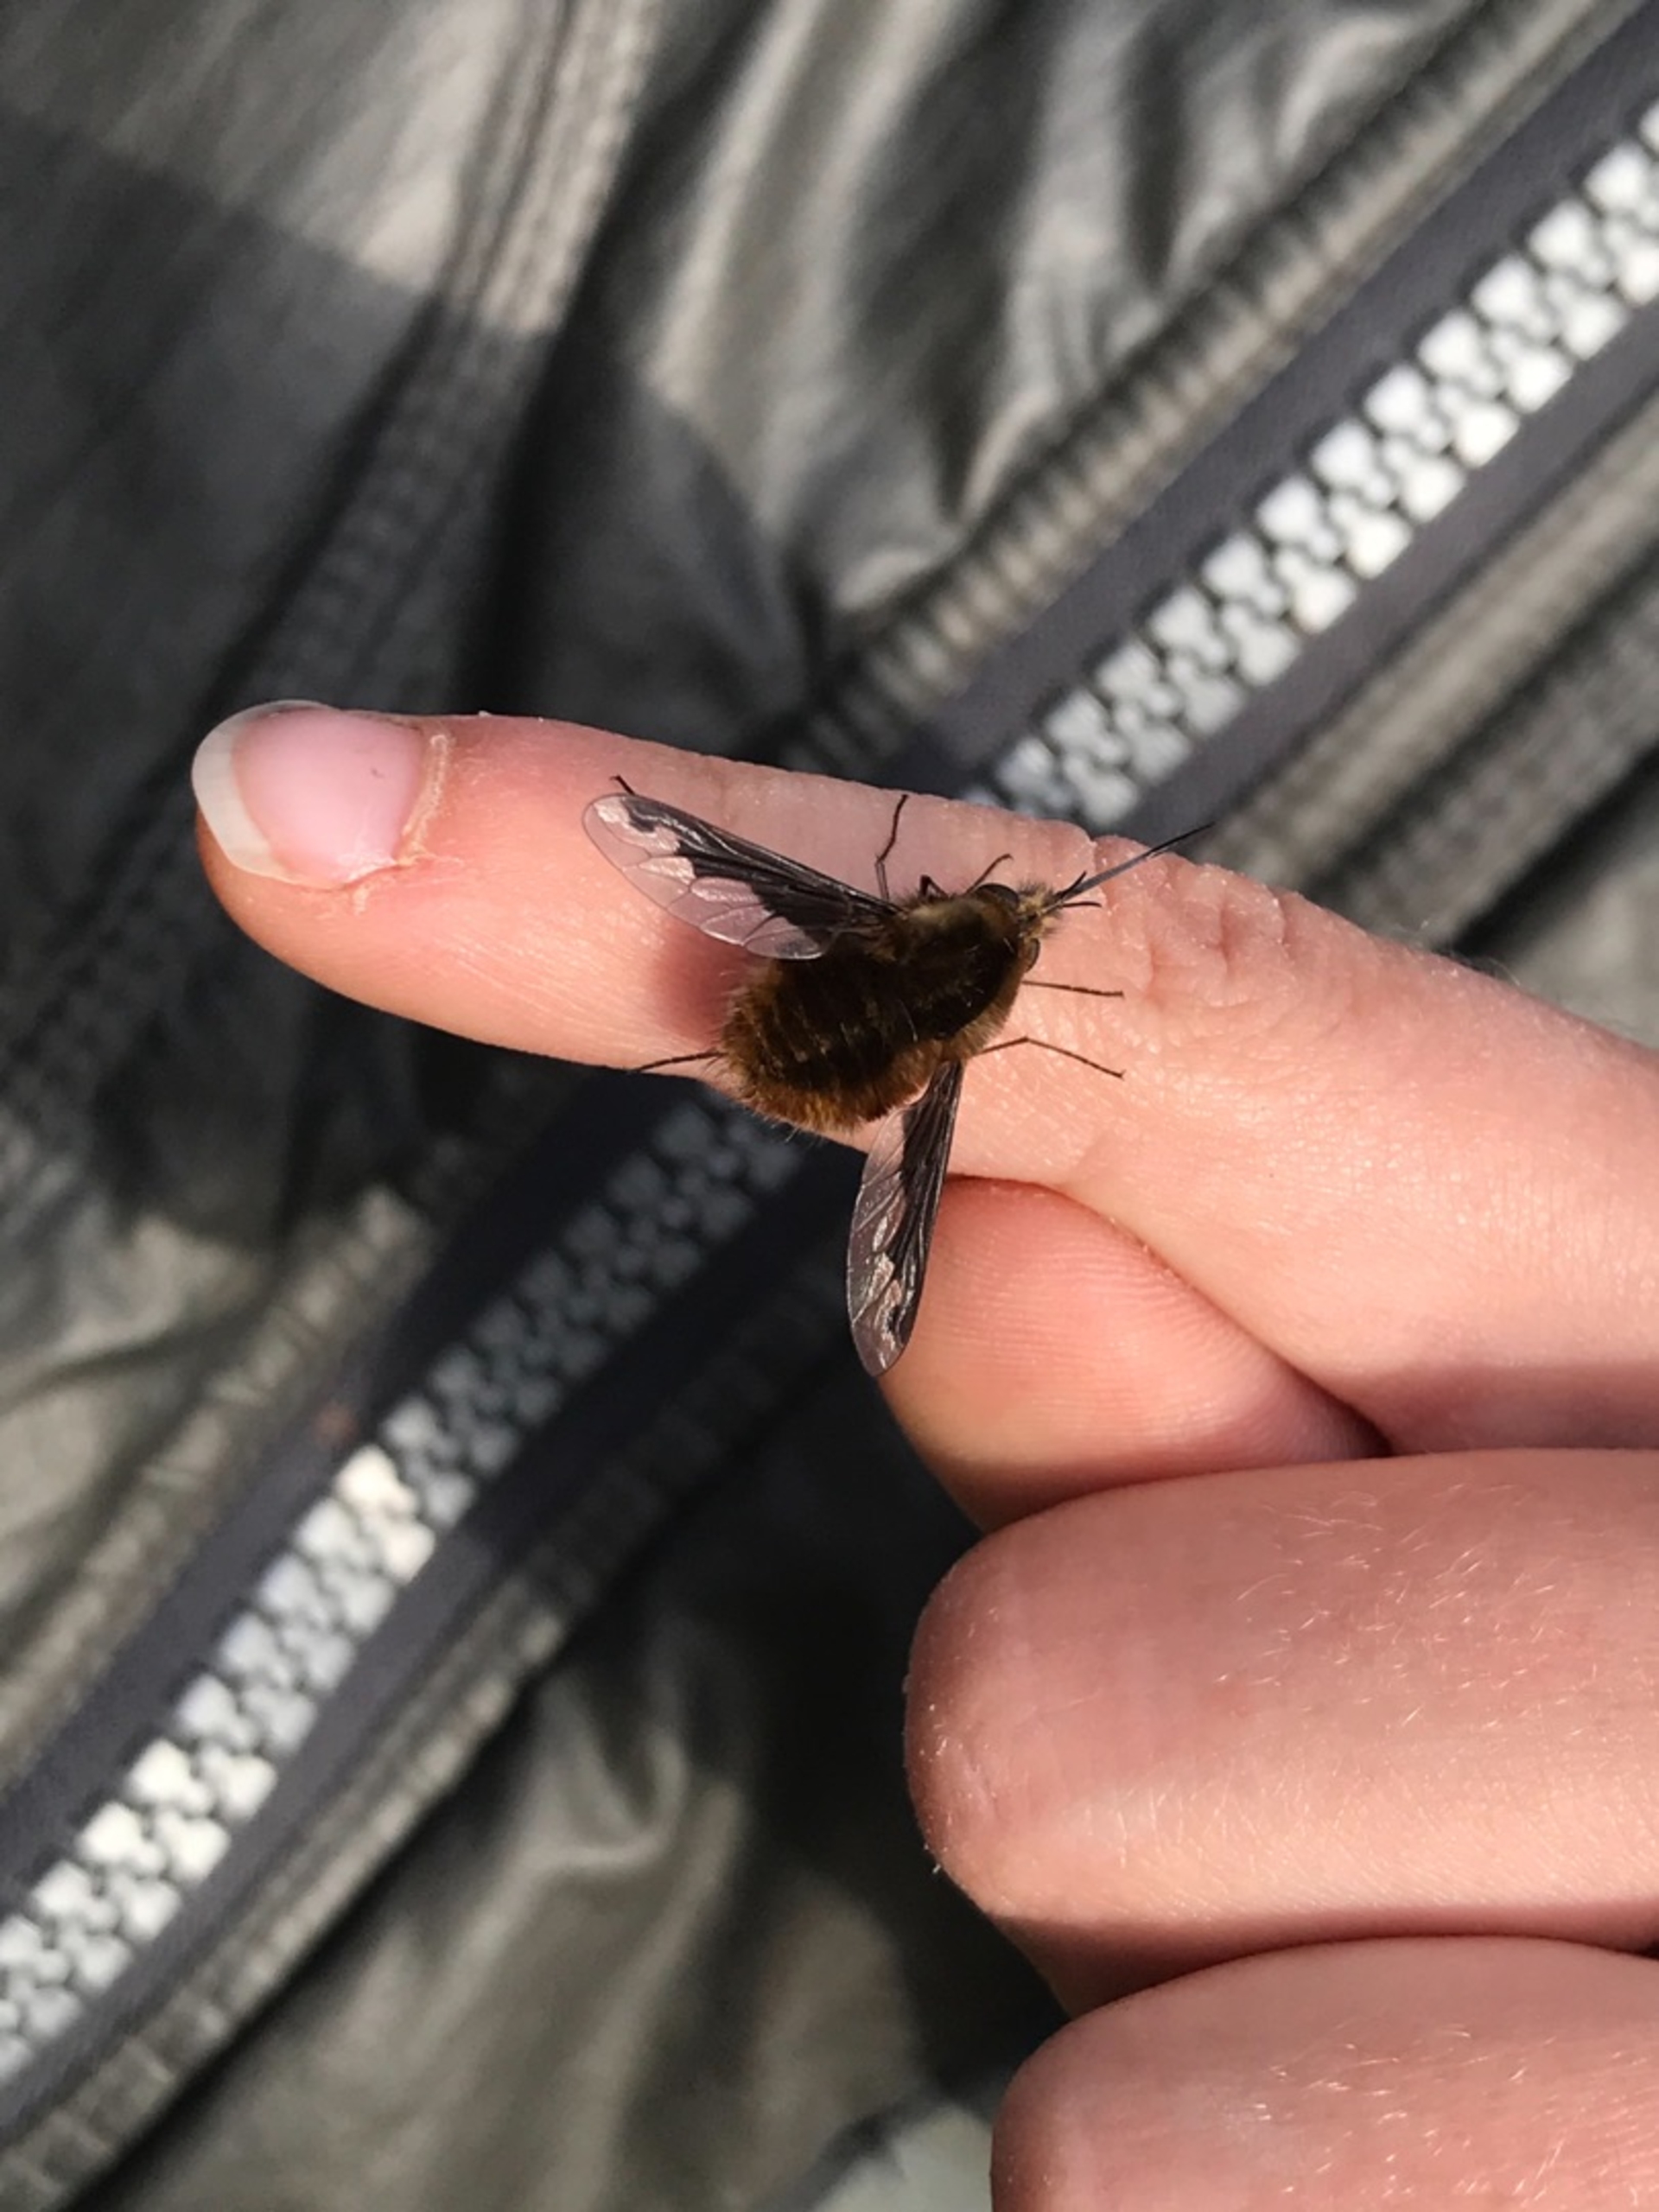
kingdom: Animalia
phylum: Arthropoda
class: Insecta
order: Diptera
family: Bombyliidae
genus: Bombylius
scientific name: Bombylius major
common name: Stor humleflue
